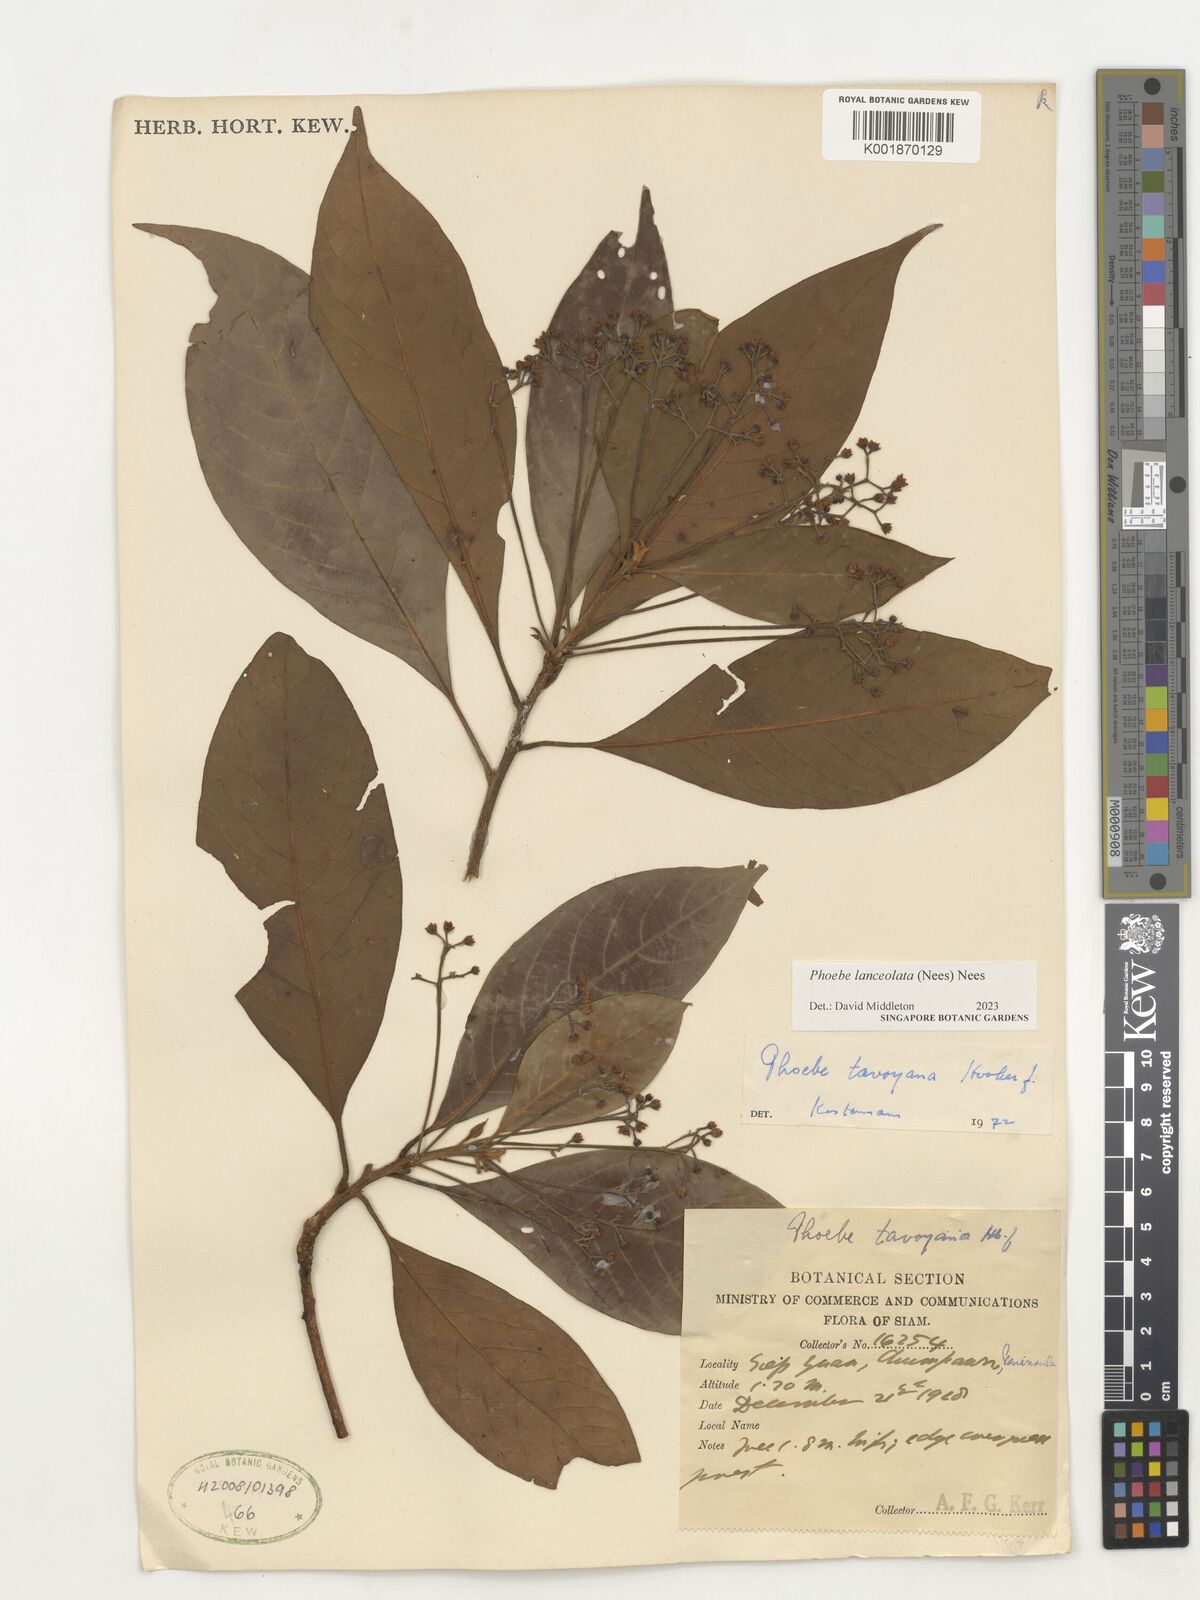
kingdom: Plantae
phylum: Tracheophyta
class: Magnoliopsida
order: Laurales
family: Lauraceae
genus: Phoebe
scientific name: Phoebe lanceolata
